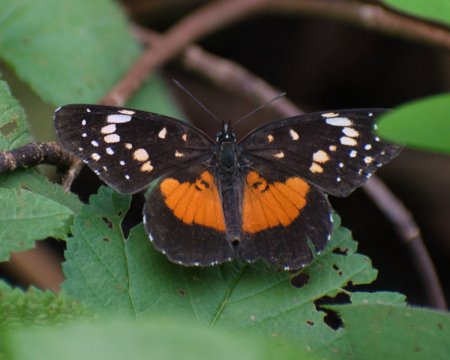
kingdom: Animalia
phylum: Arthropoda
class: Insecta
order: Lepidoptera
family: Nymphalidae
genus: Chlosyne
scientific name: Chlosyne lacinia
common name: Bordered Patch
